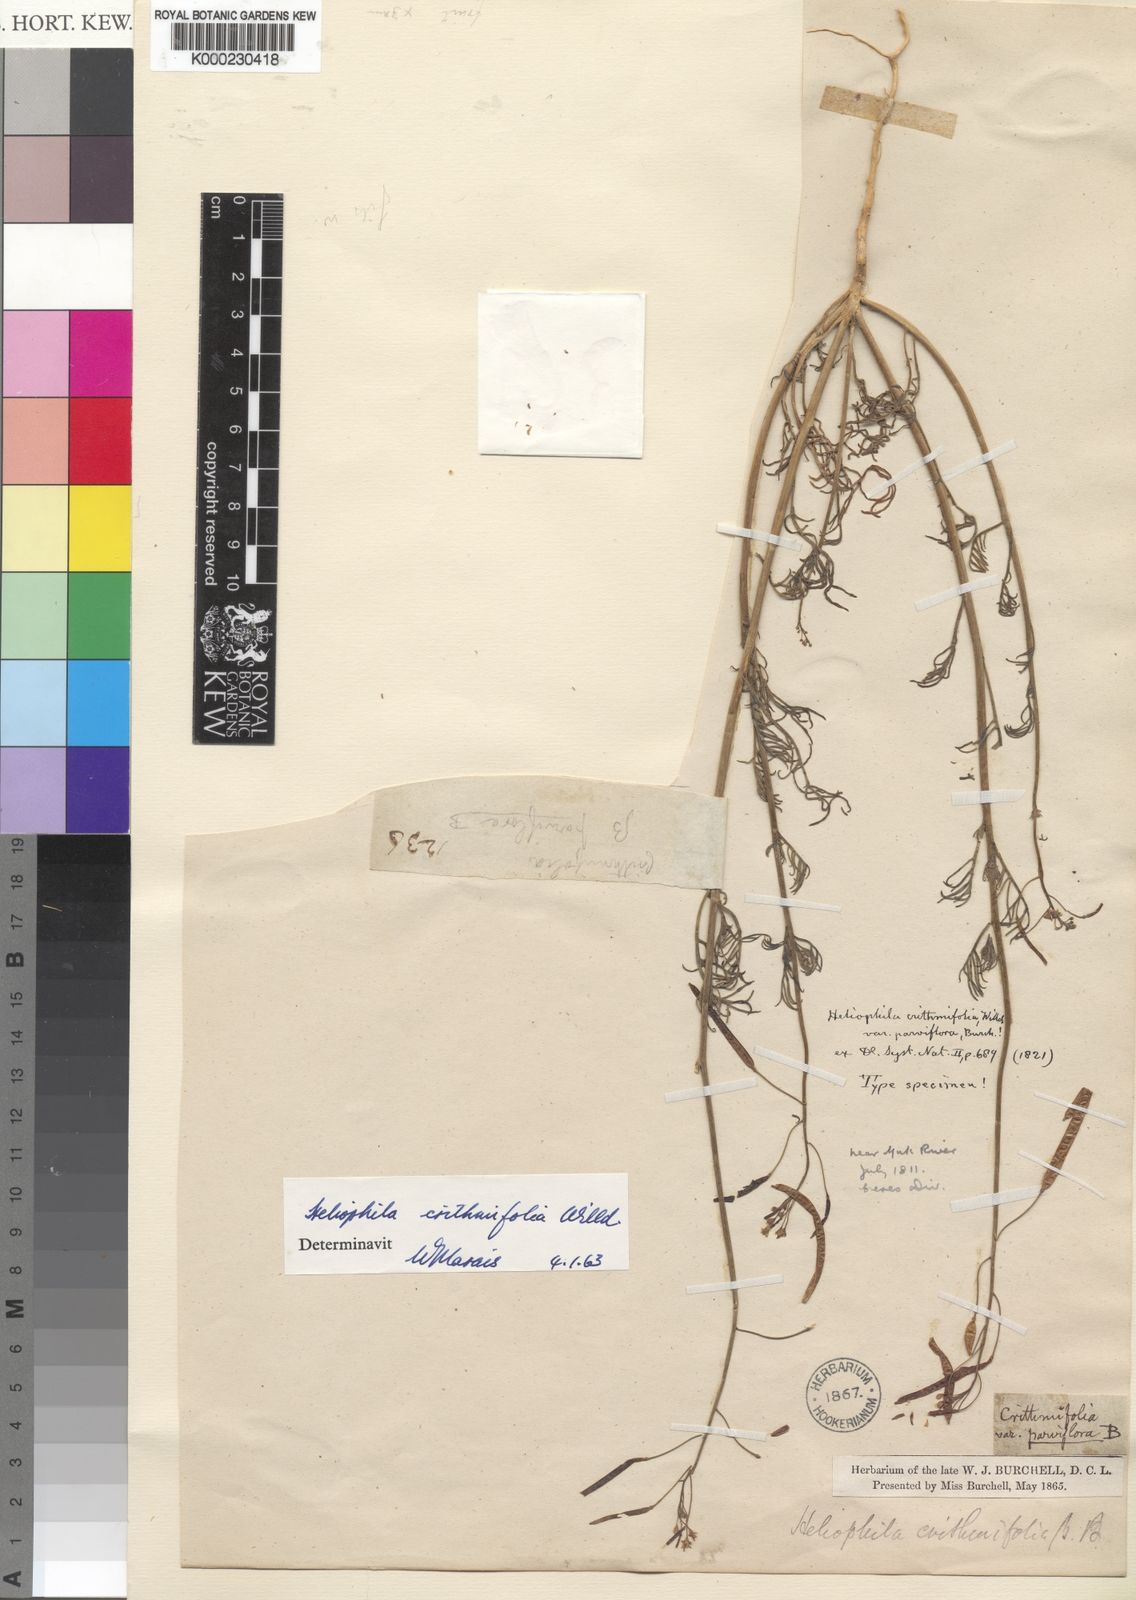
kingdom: Plantae
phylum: Tracheophyta
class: Magnoliopsida
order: Brassicales
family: Brassicaceae
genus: Heliophila
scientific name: Heliophila crithmifolia
